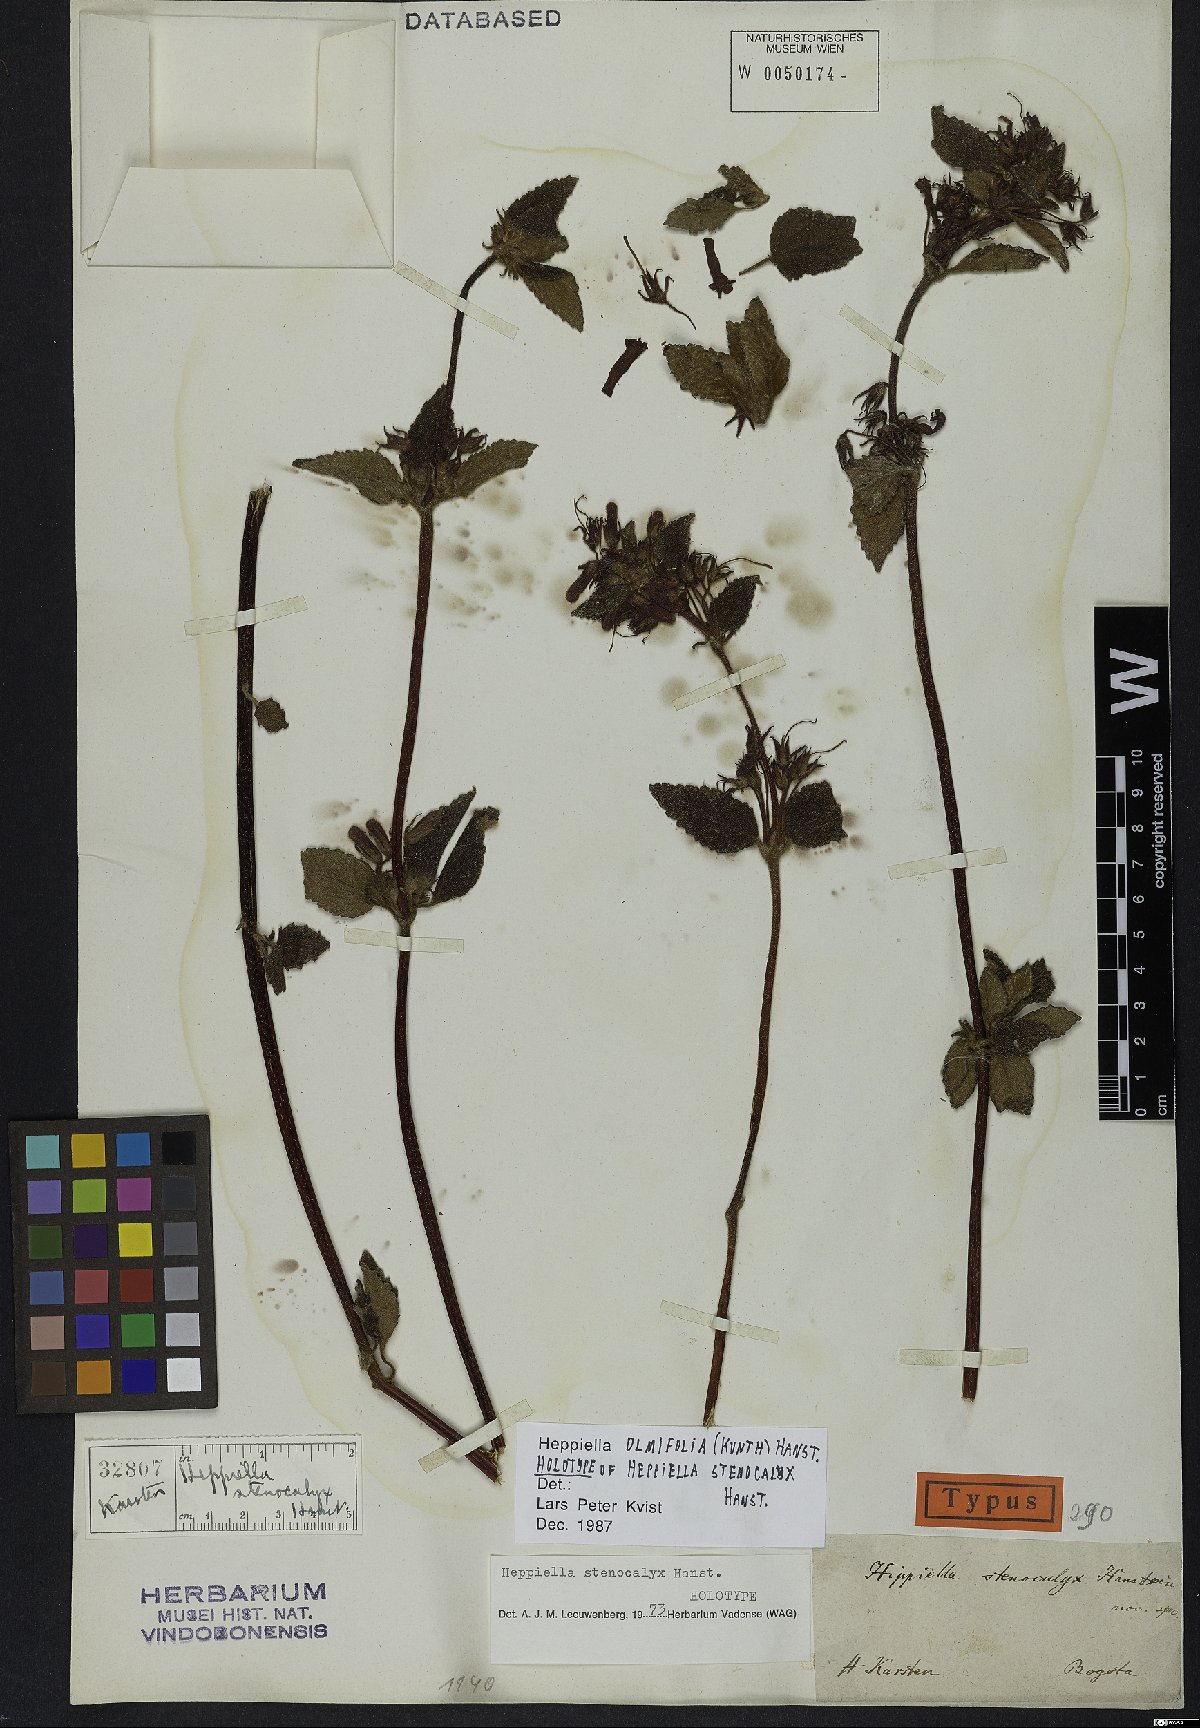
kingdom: Plantae
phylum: Tracheophyta
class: Magnoliopsida
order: Lamiales
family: Gesneriaceae
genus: Heppiella
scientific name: Heppiella ulmifolia
